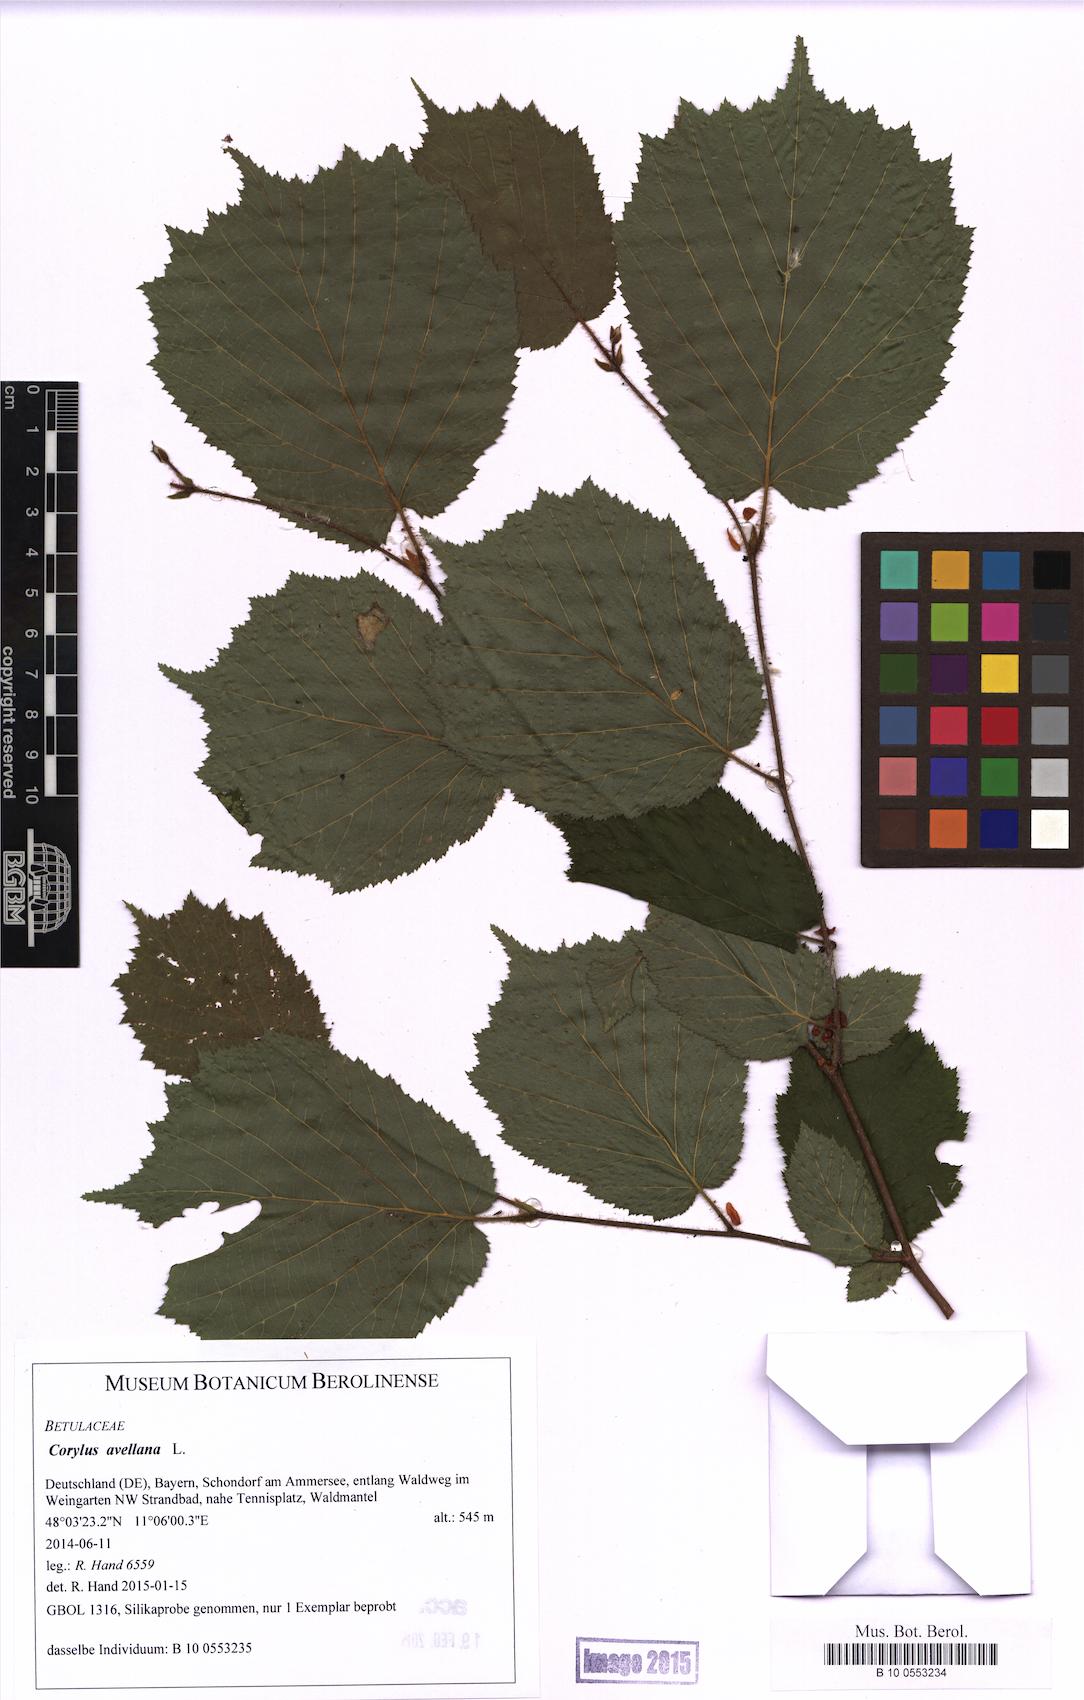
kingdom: Plantae
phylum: Tracheophyta
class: Magnoliopsida
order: Fagales
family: Betulaceae
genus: Corylus
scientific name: Corylus avellana
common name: European hazel
